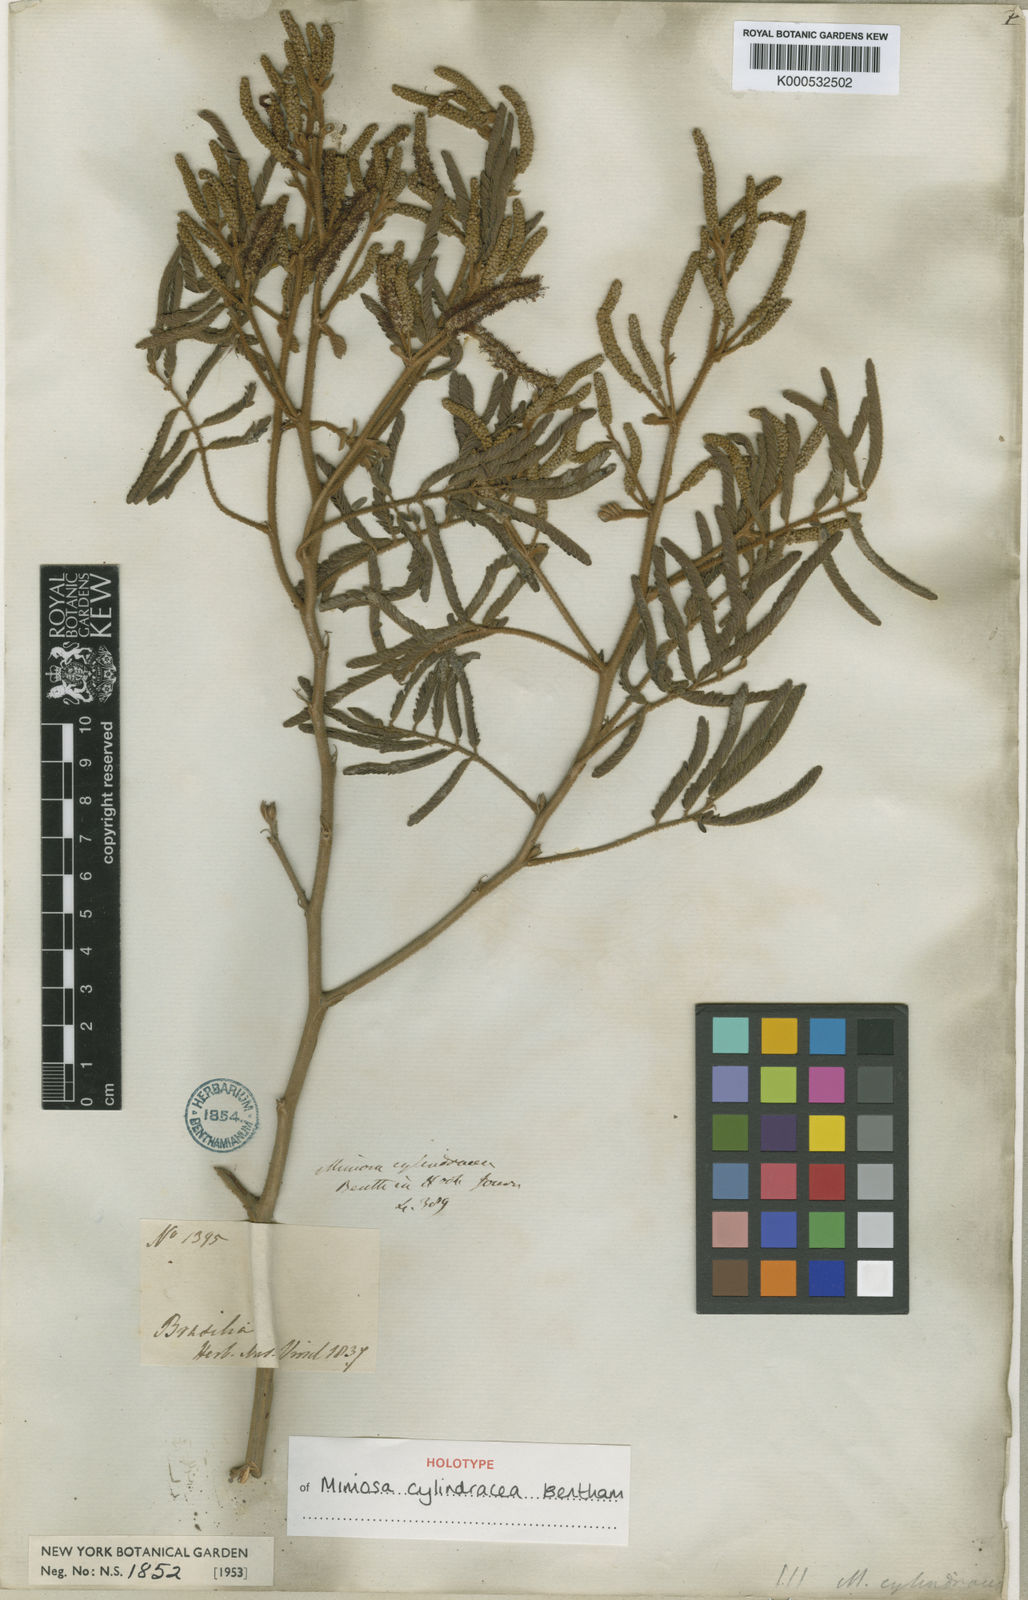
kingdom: Plantae
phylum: Tracheophyta
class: Magnoliopsida
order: Fabales
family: Fabaceae
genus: Mimosa
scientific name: Mimosa cylindracea
